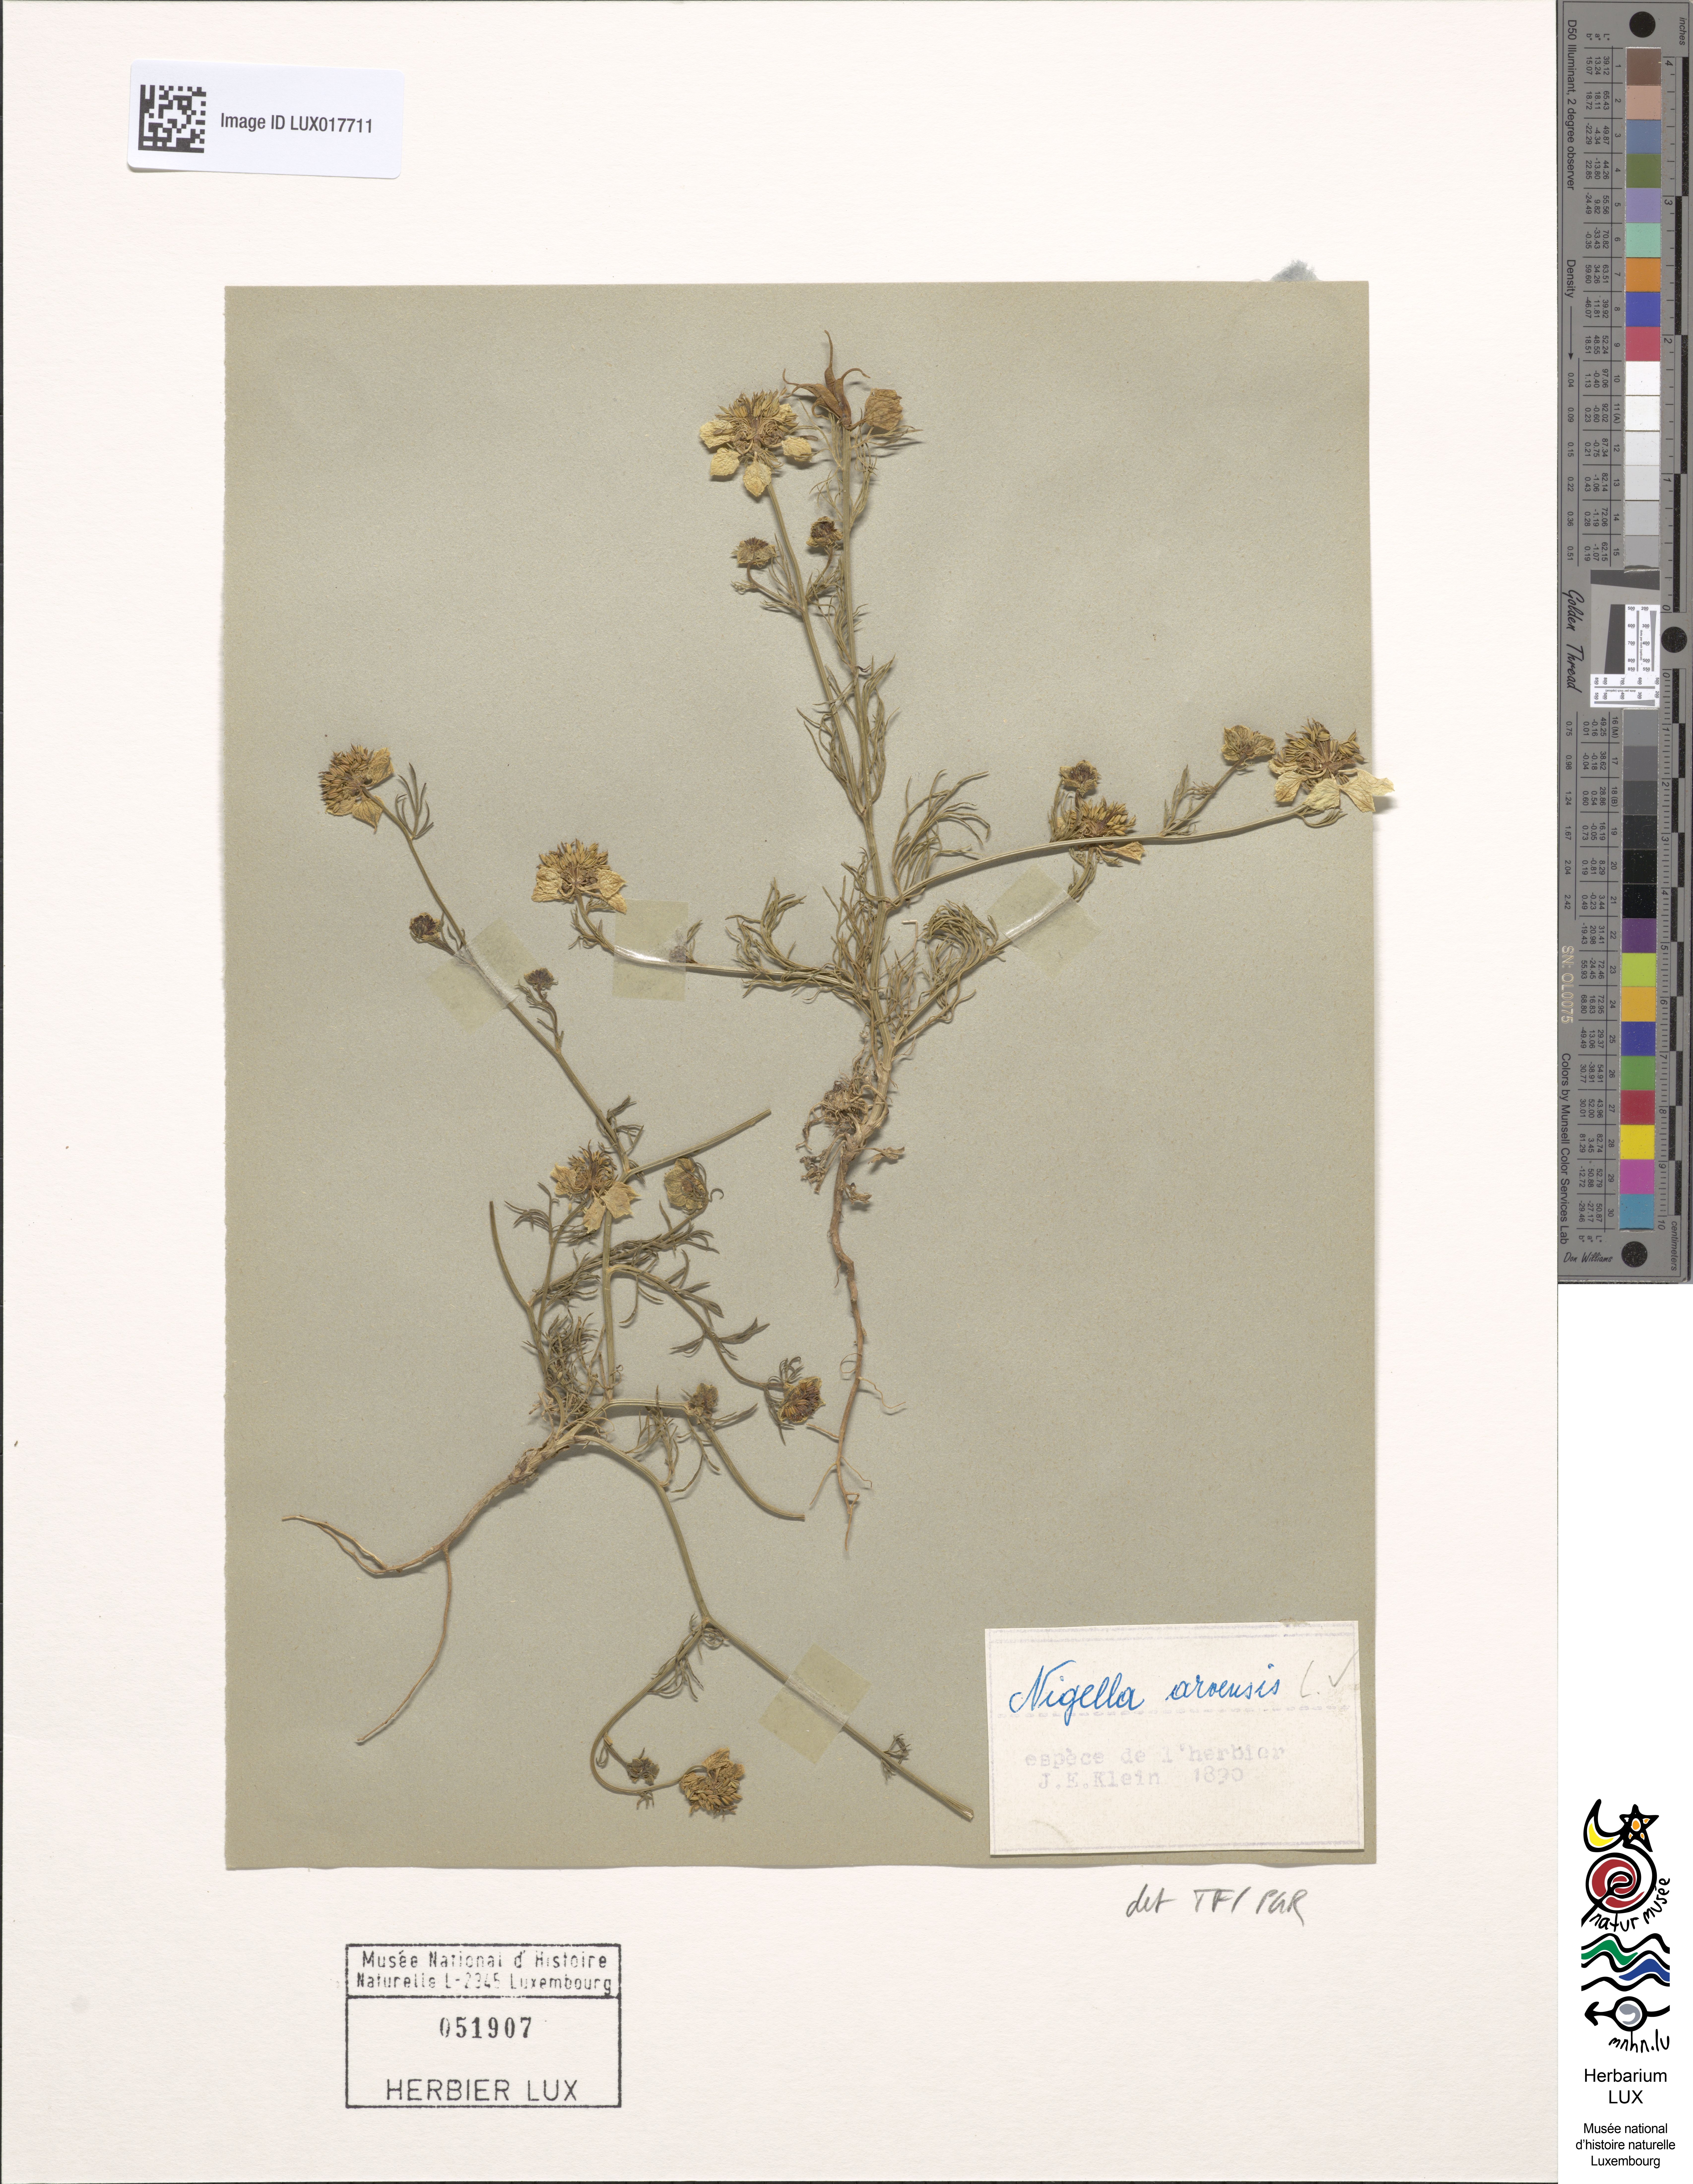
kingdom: Plantae
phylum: Tracheophyta
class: Magnoliopsida
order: Ranunculales
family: Ranunculaceae
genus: Nigella
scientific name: Nigella arvensis
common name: Wild fennel-flower
